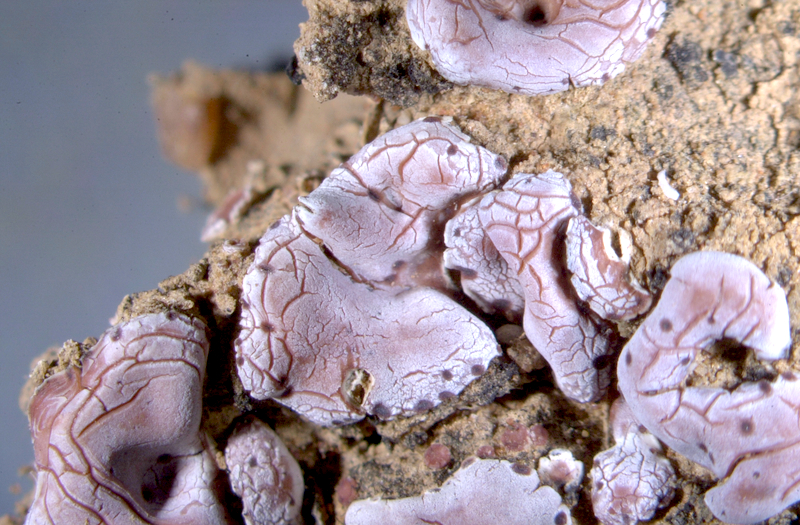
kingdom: Fungi
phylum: Ascomycota
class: Lecanoromycetes
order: Lecanorales
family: Psoraceae
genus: Psora
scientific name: Psora crenata
